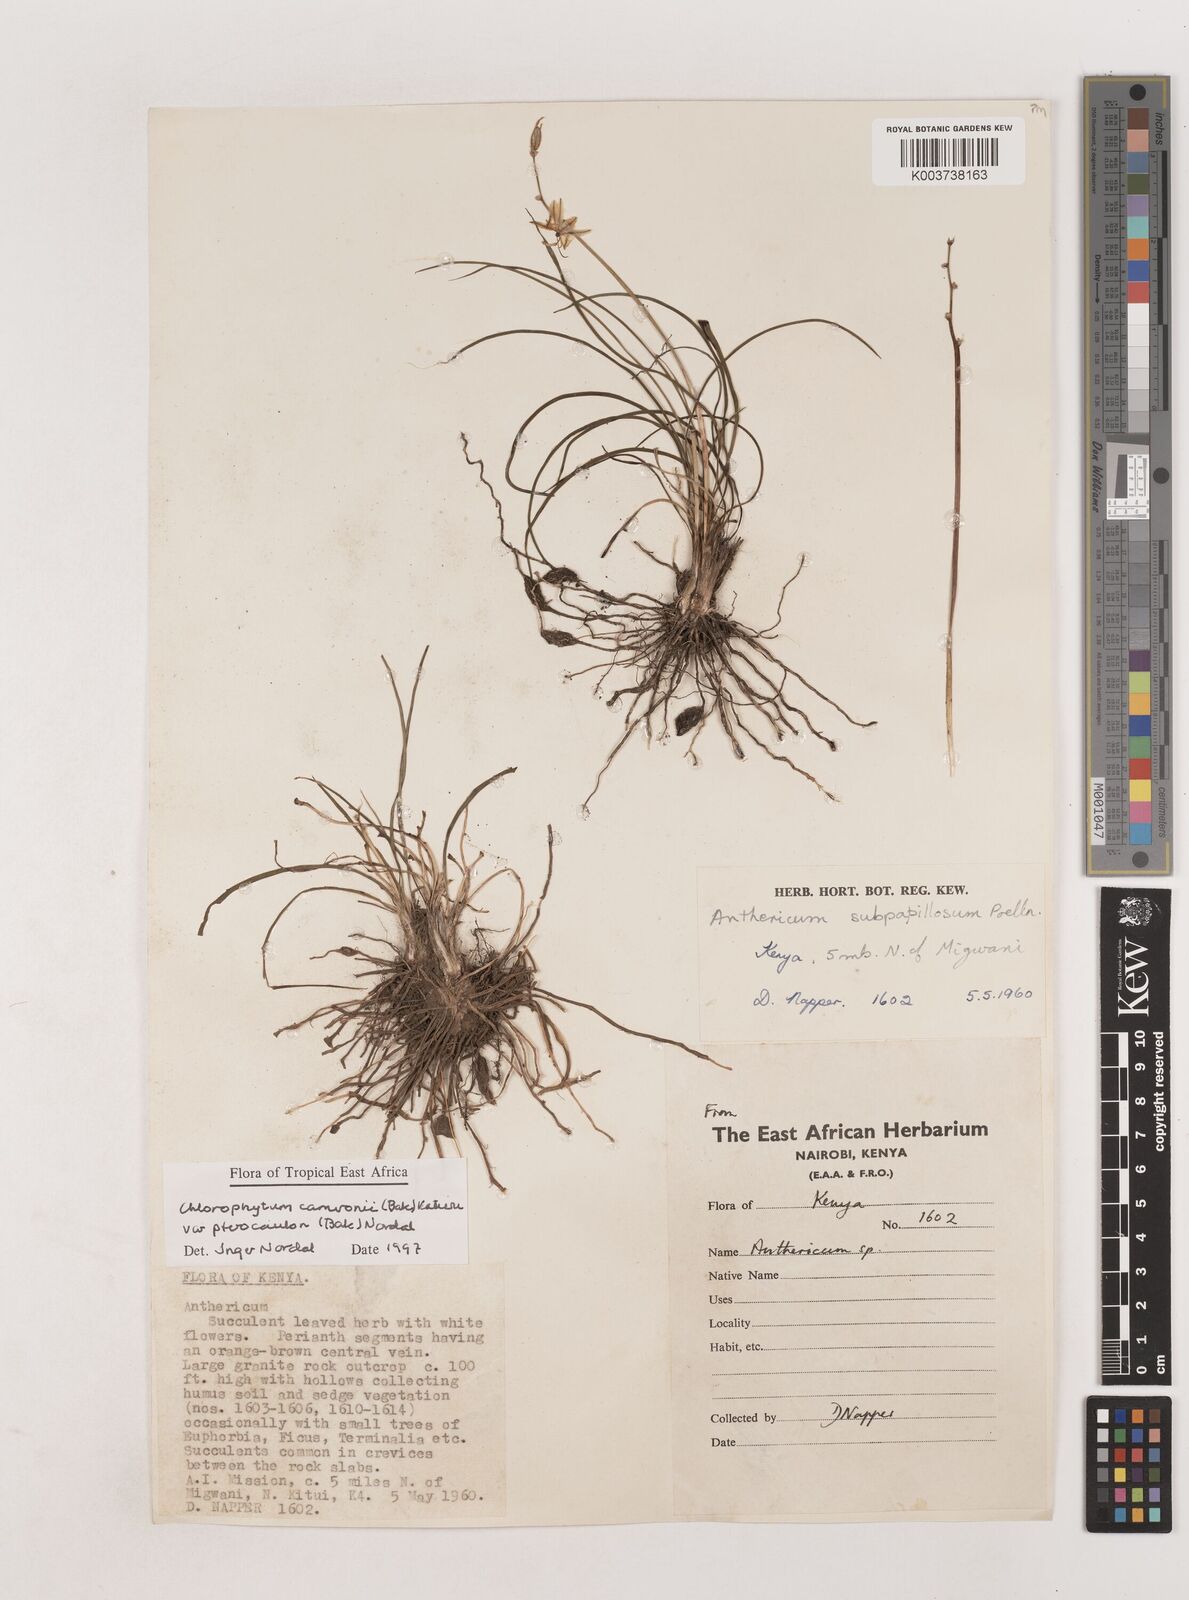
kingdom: Plantae
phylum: Tracheophyta
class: Liliopsida
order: Asparagales
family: Asparagaceae
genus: Chlorophytum
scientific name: Chlorophytum cameronii
